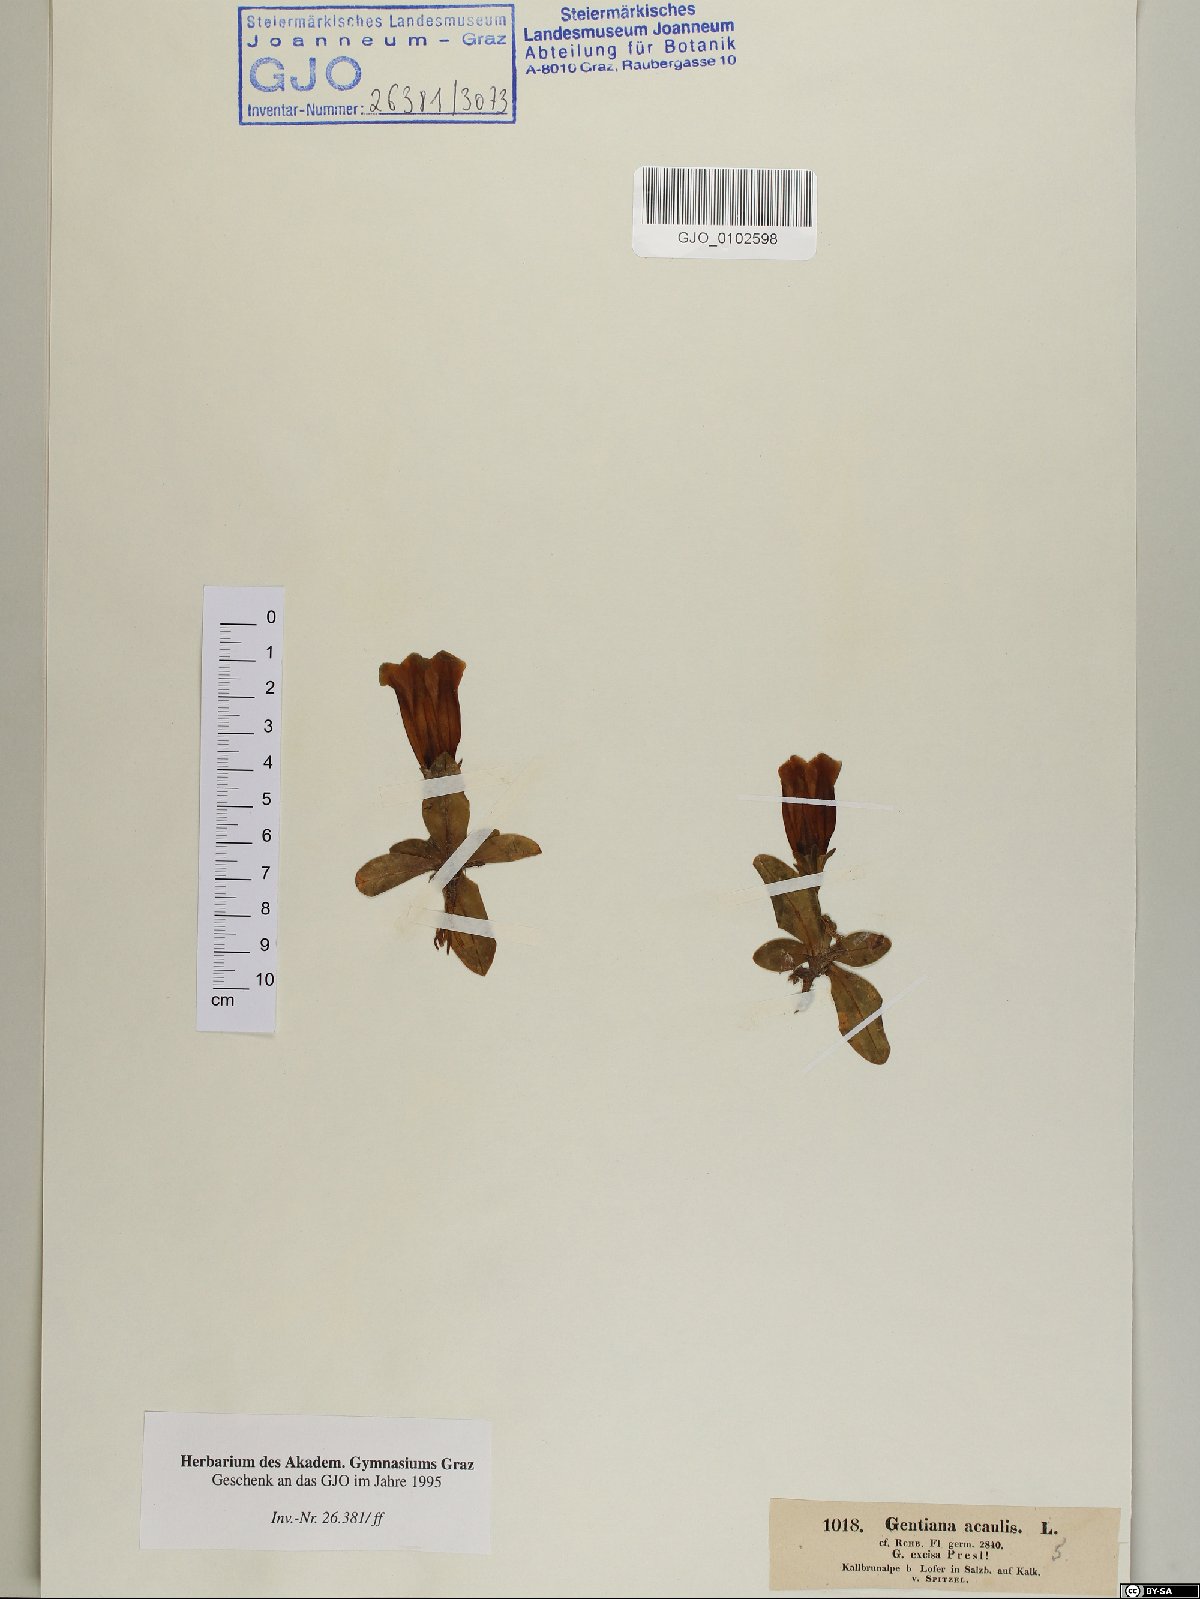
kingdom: Plantae
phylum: Tracheophyta
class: Magnoliopsida
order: Gentianales
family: Gentianaceae
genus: Gentiana
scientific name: Gentiana acaulis
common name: Trumpet gentian
